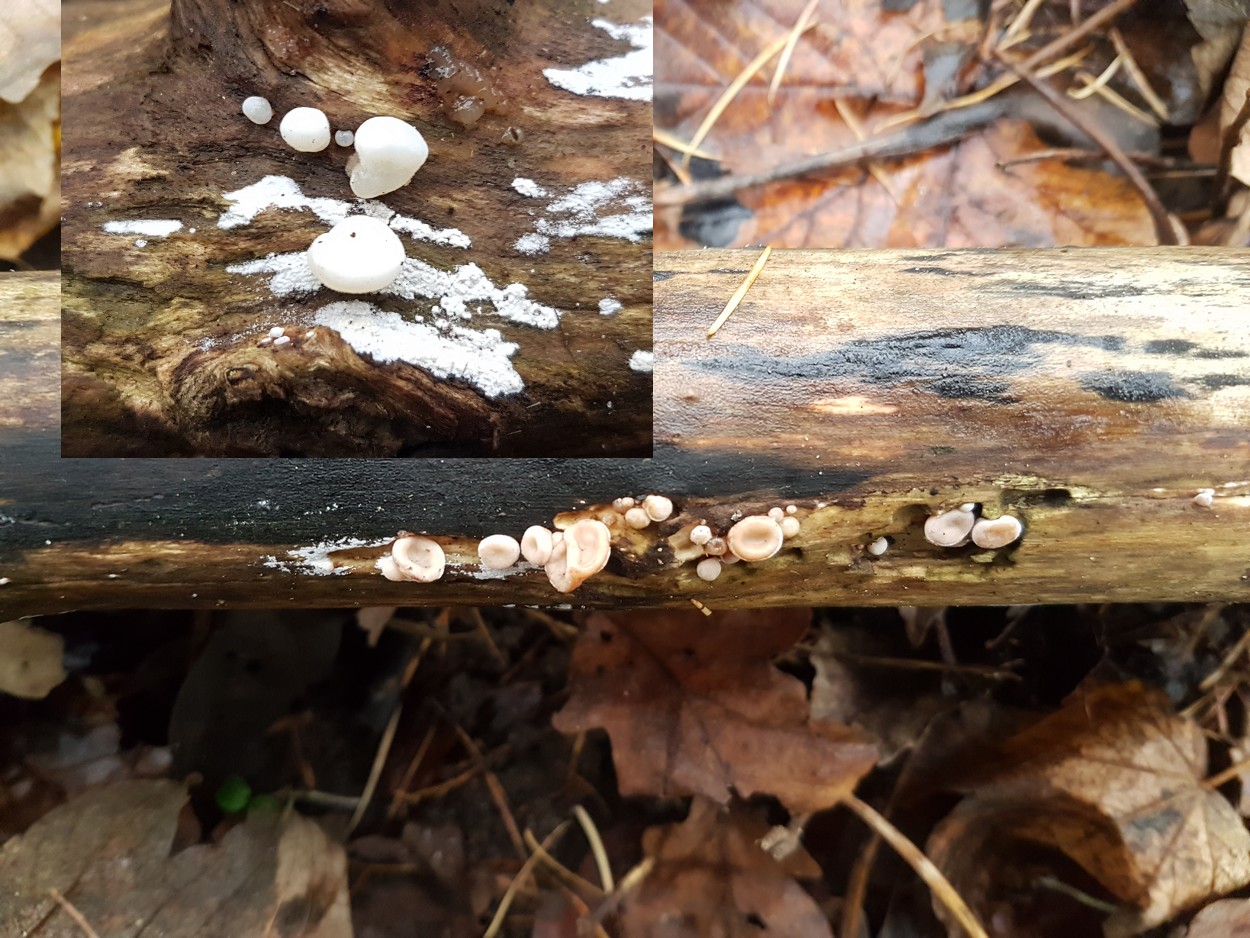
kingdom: Fungi
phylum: Basidiomycota
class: Agaricomycetes
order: Auriculariales
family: Auriculariaceae
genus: Auricularia
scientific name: Auricularia auricula-judae
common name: almindelig judasøre
